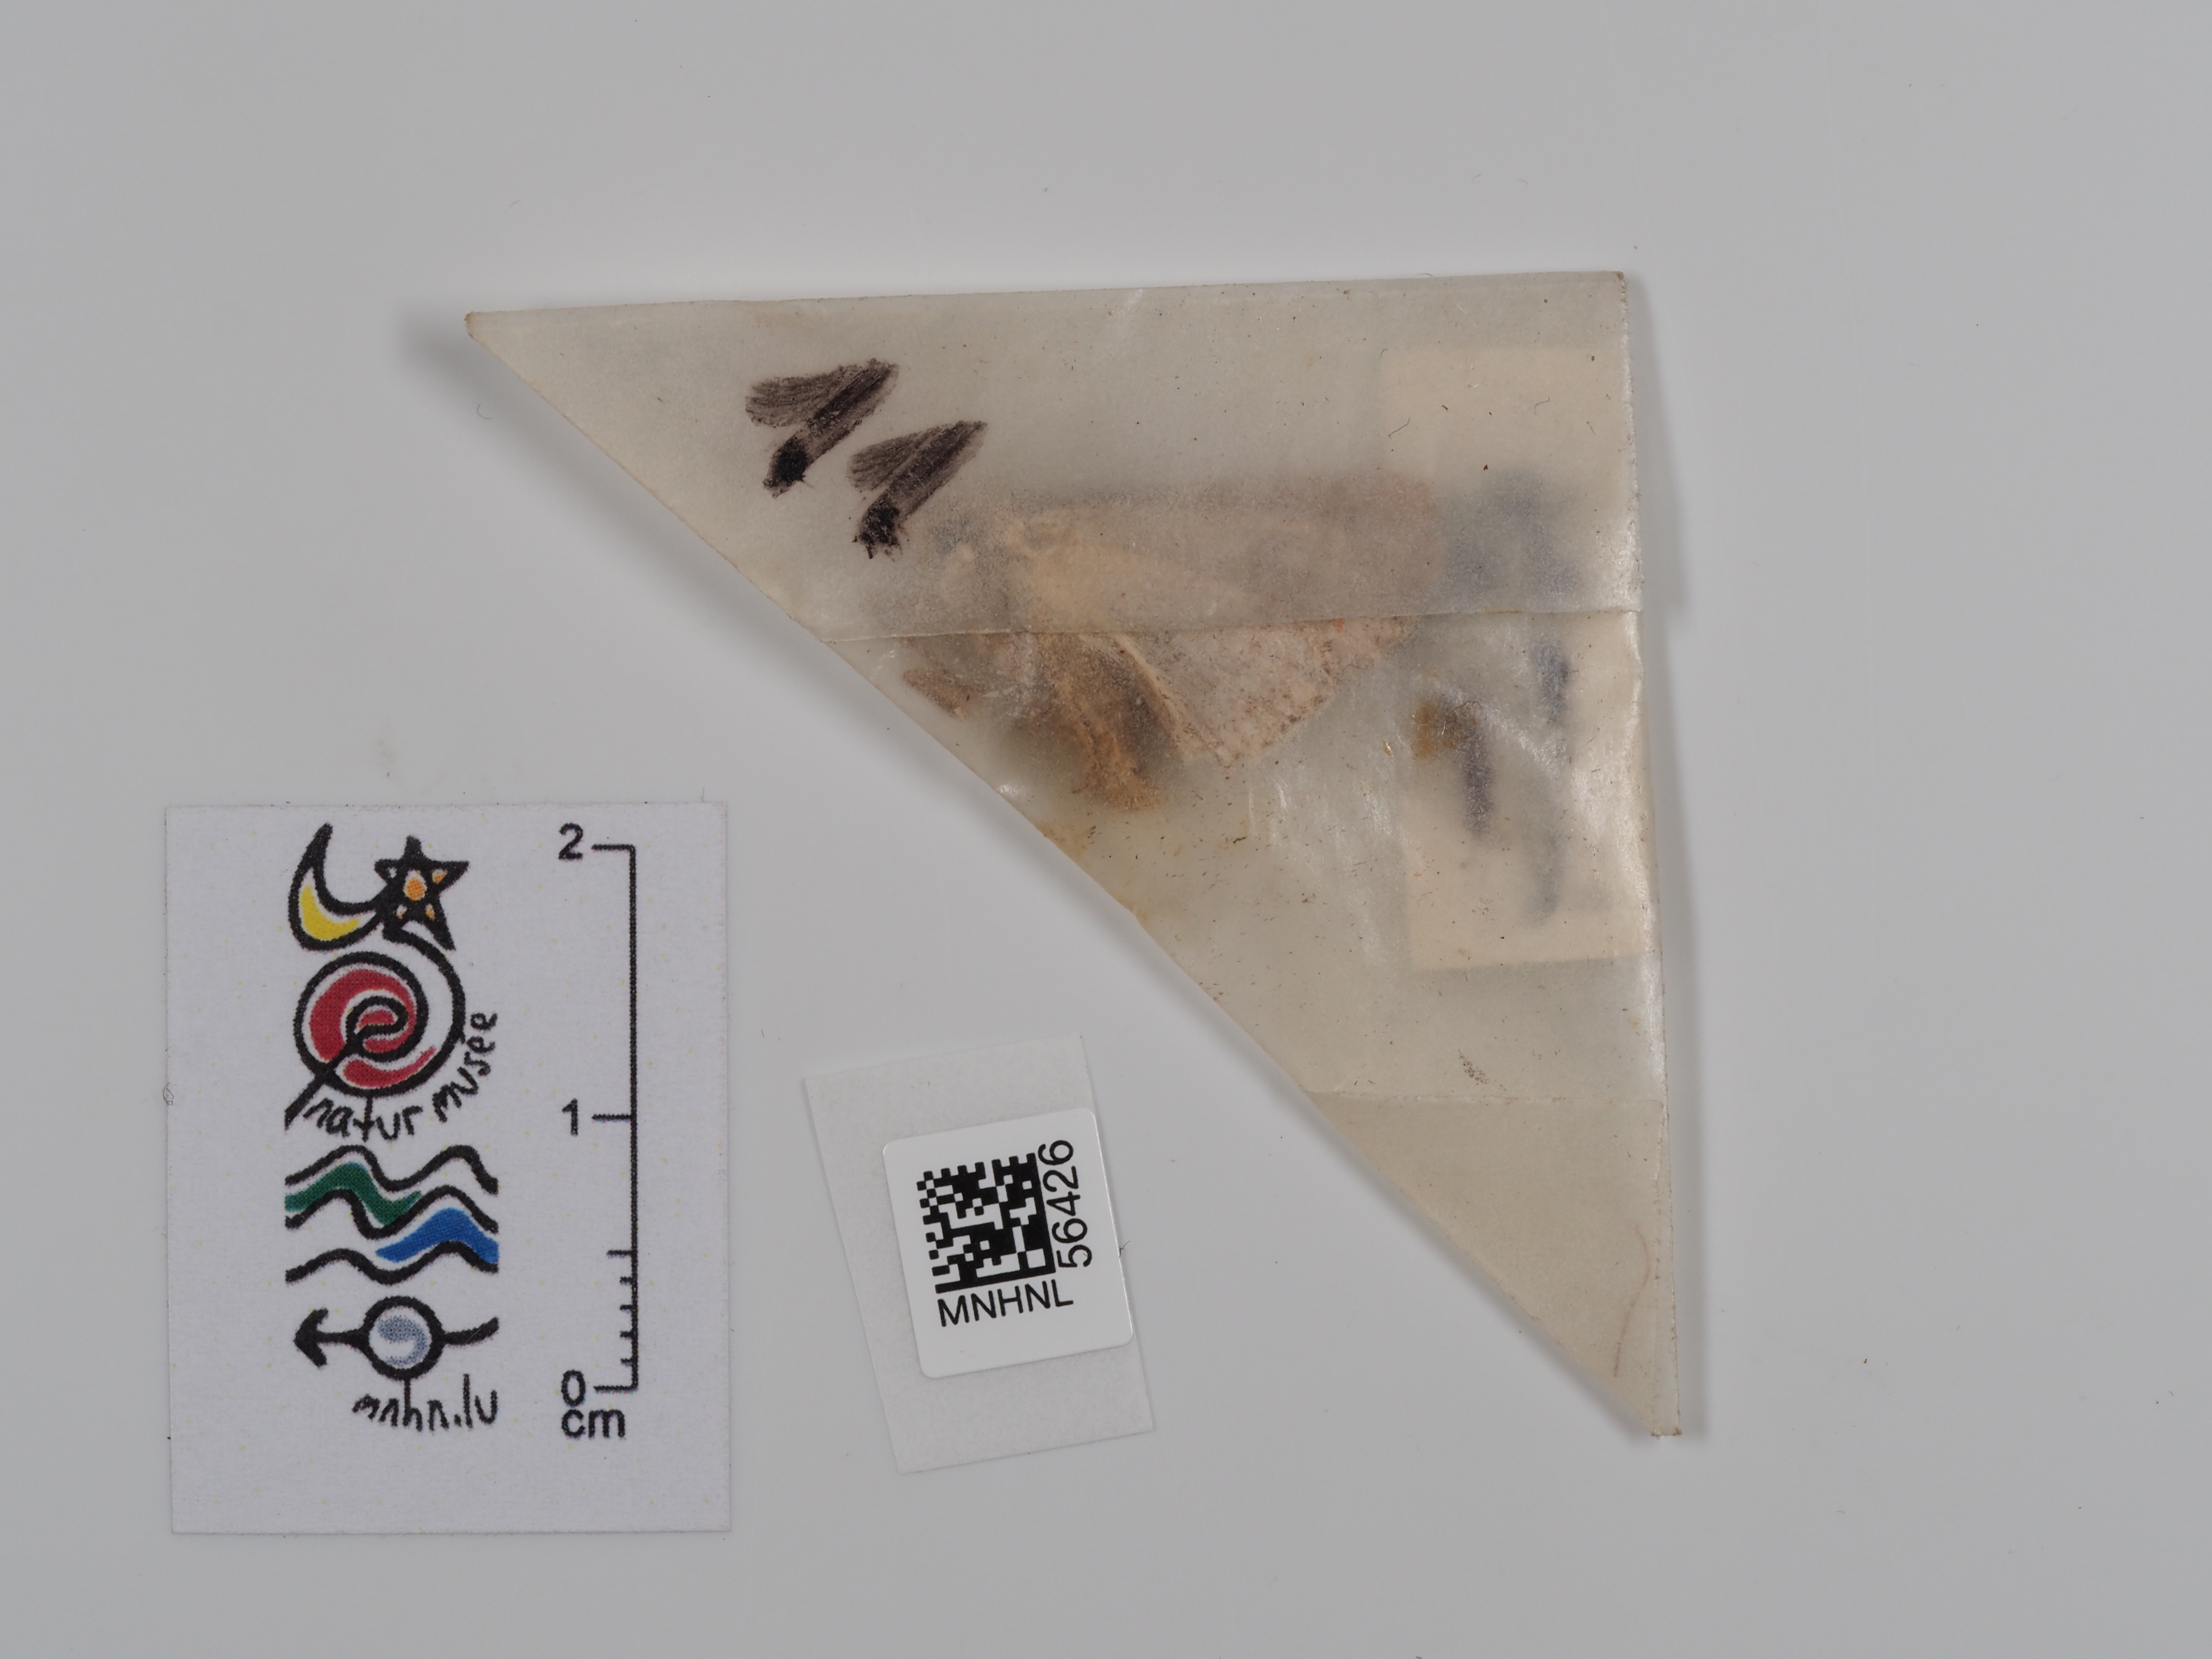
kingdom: Animalia
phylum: Arthropoda
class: Insecta
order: Lepidoptera
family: Noctuidae
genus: Anarta
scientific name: Anarta trifolii
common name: Clover cutworm moth
